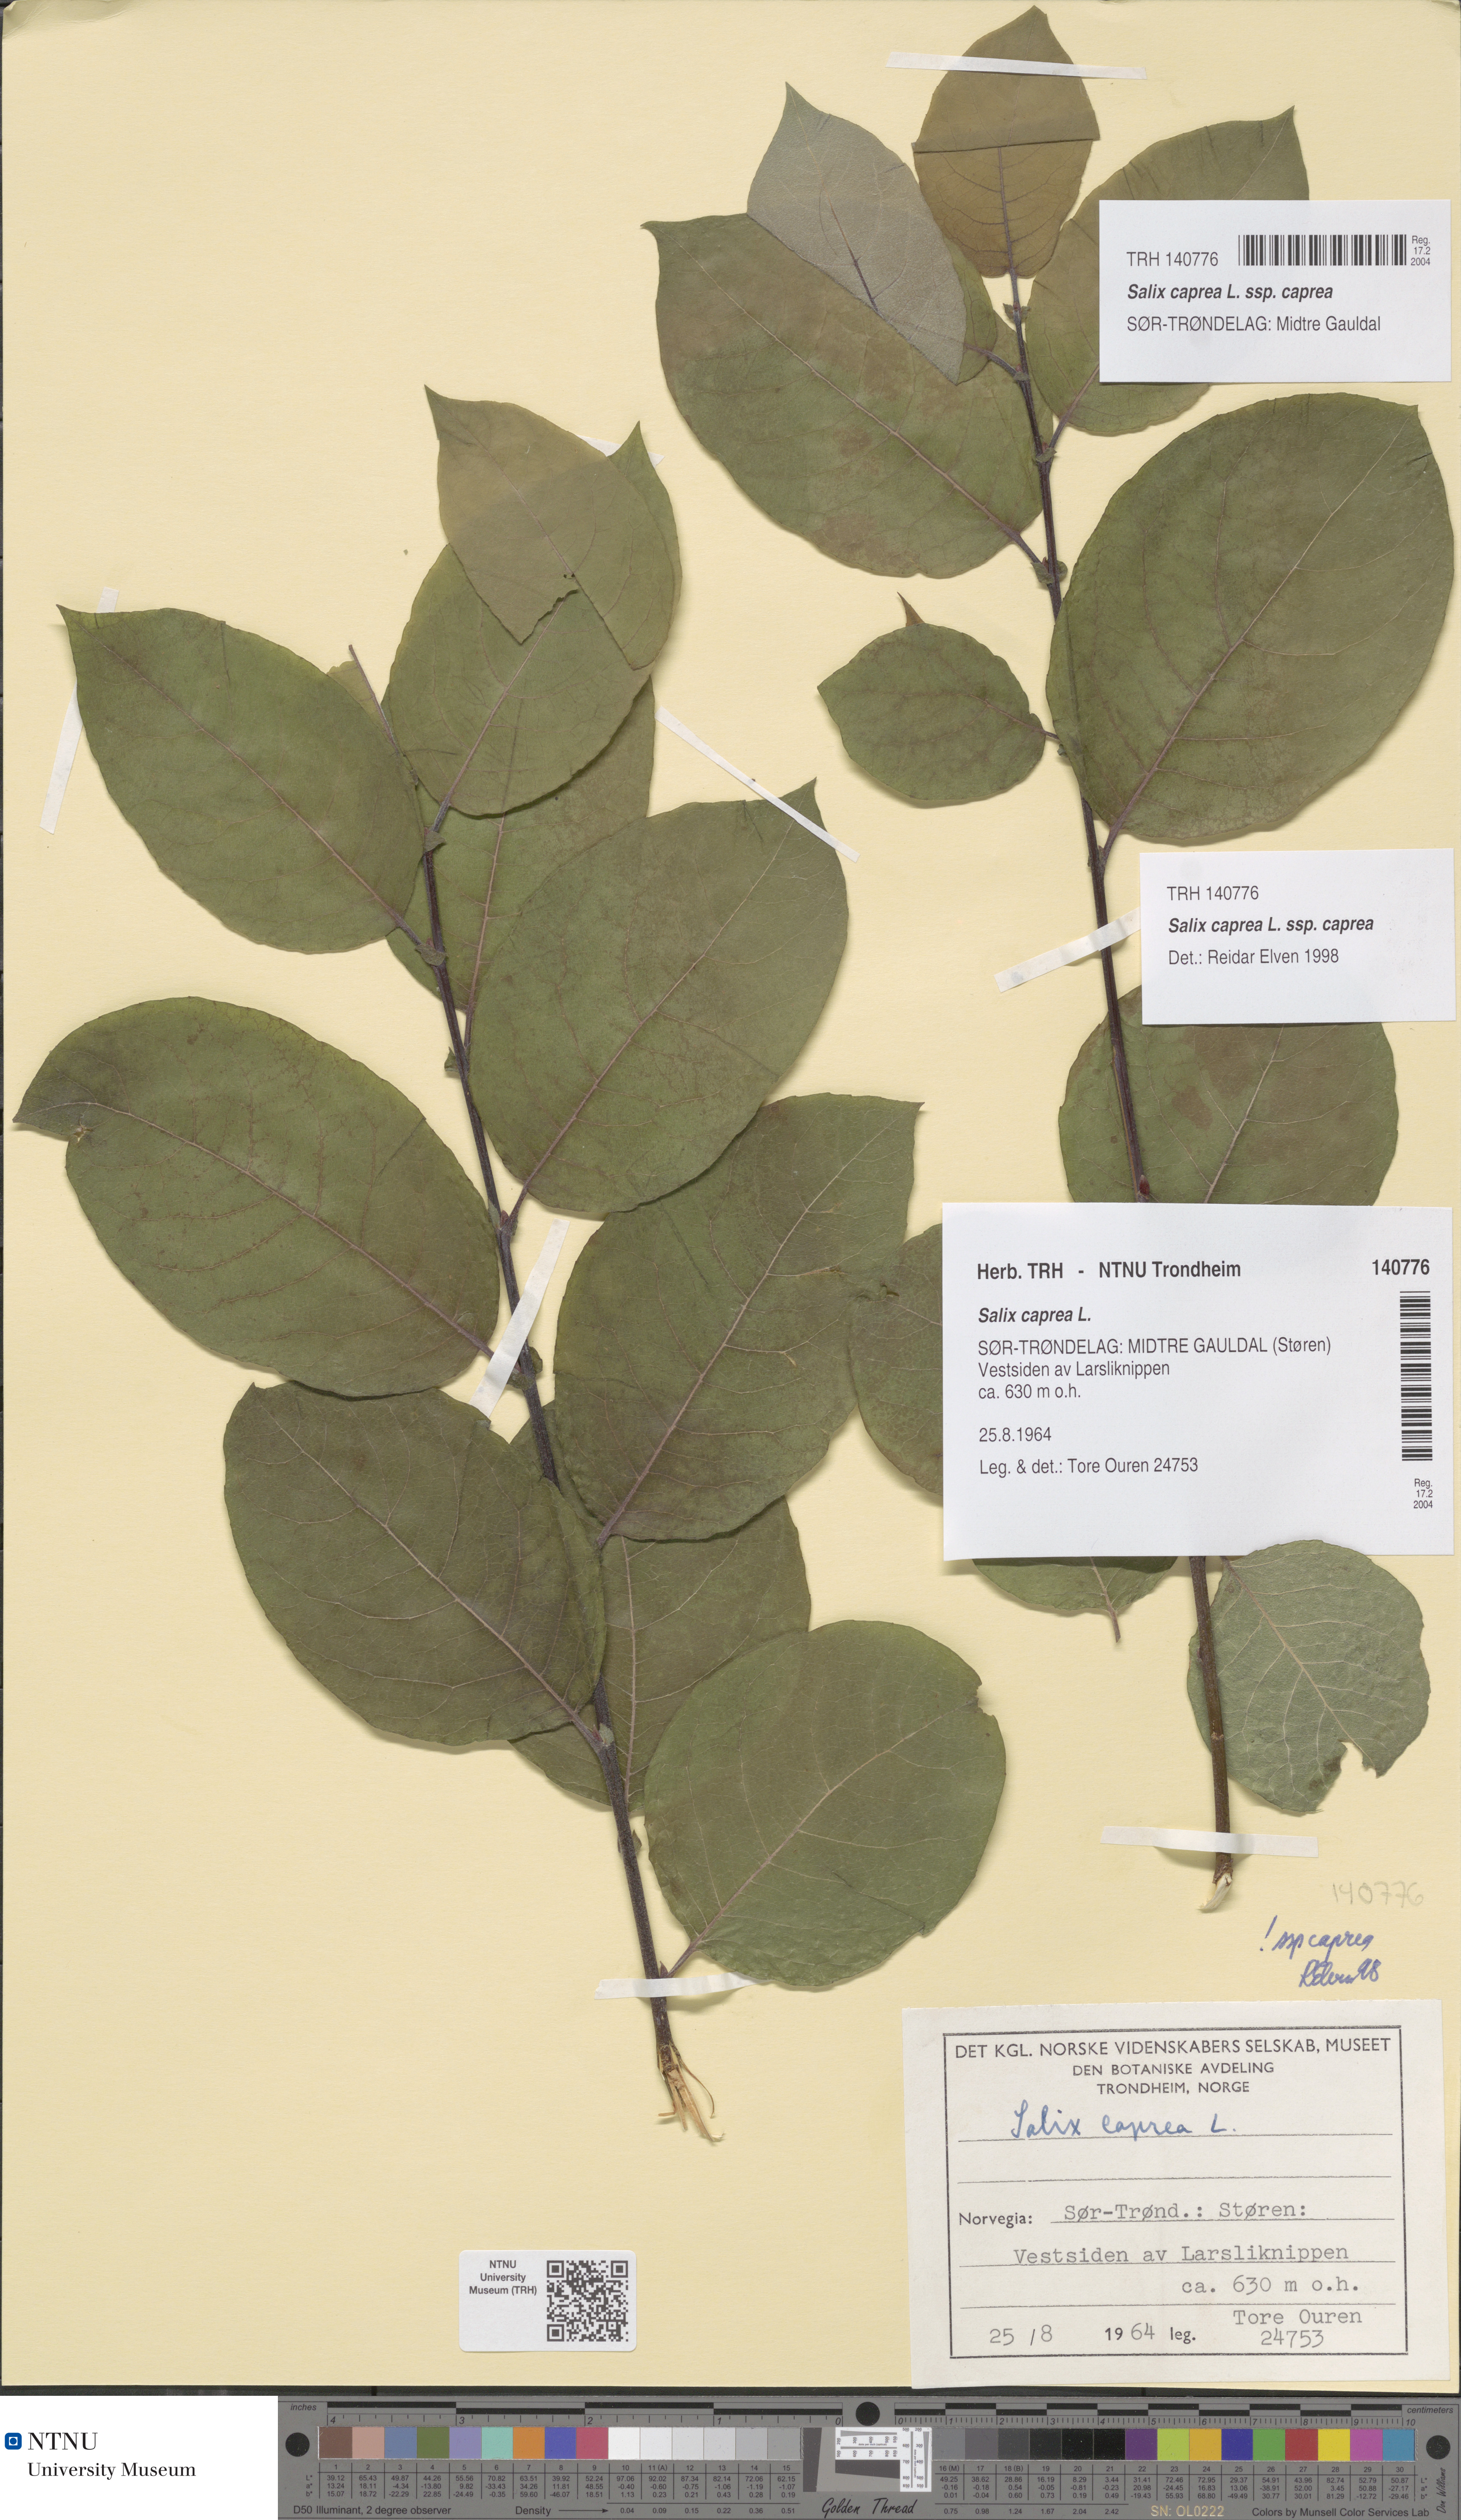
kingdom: Plantae
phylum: Tracheophyta
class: Magnoliopsida
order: Malpighiales
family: Salicaceae
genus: Salix
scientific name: Salix caprea
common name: Goat willow
